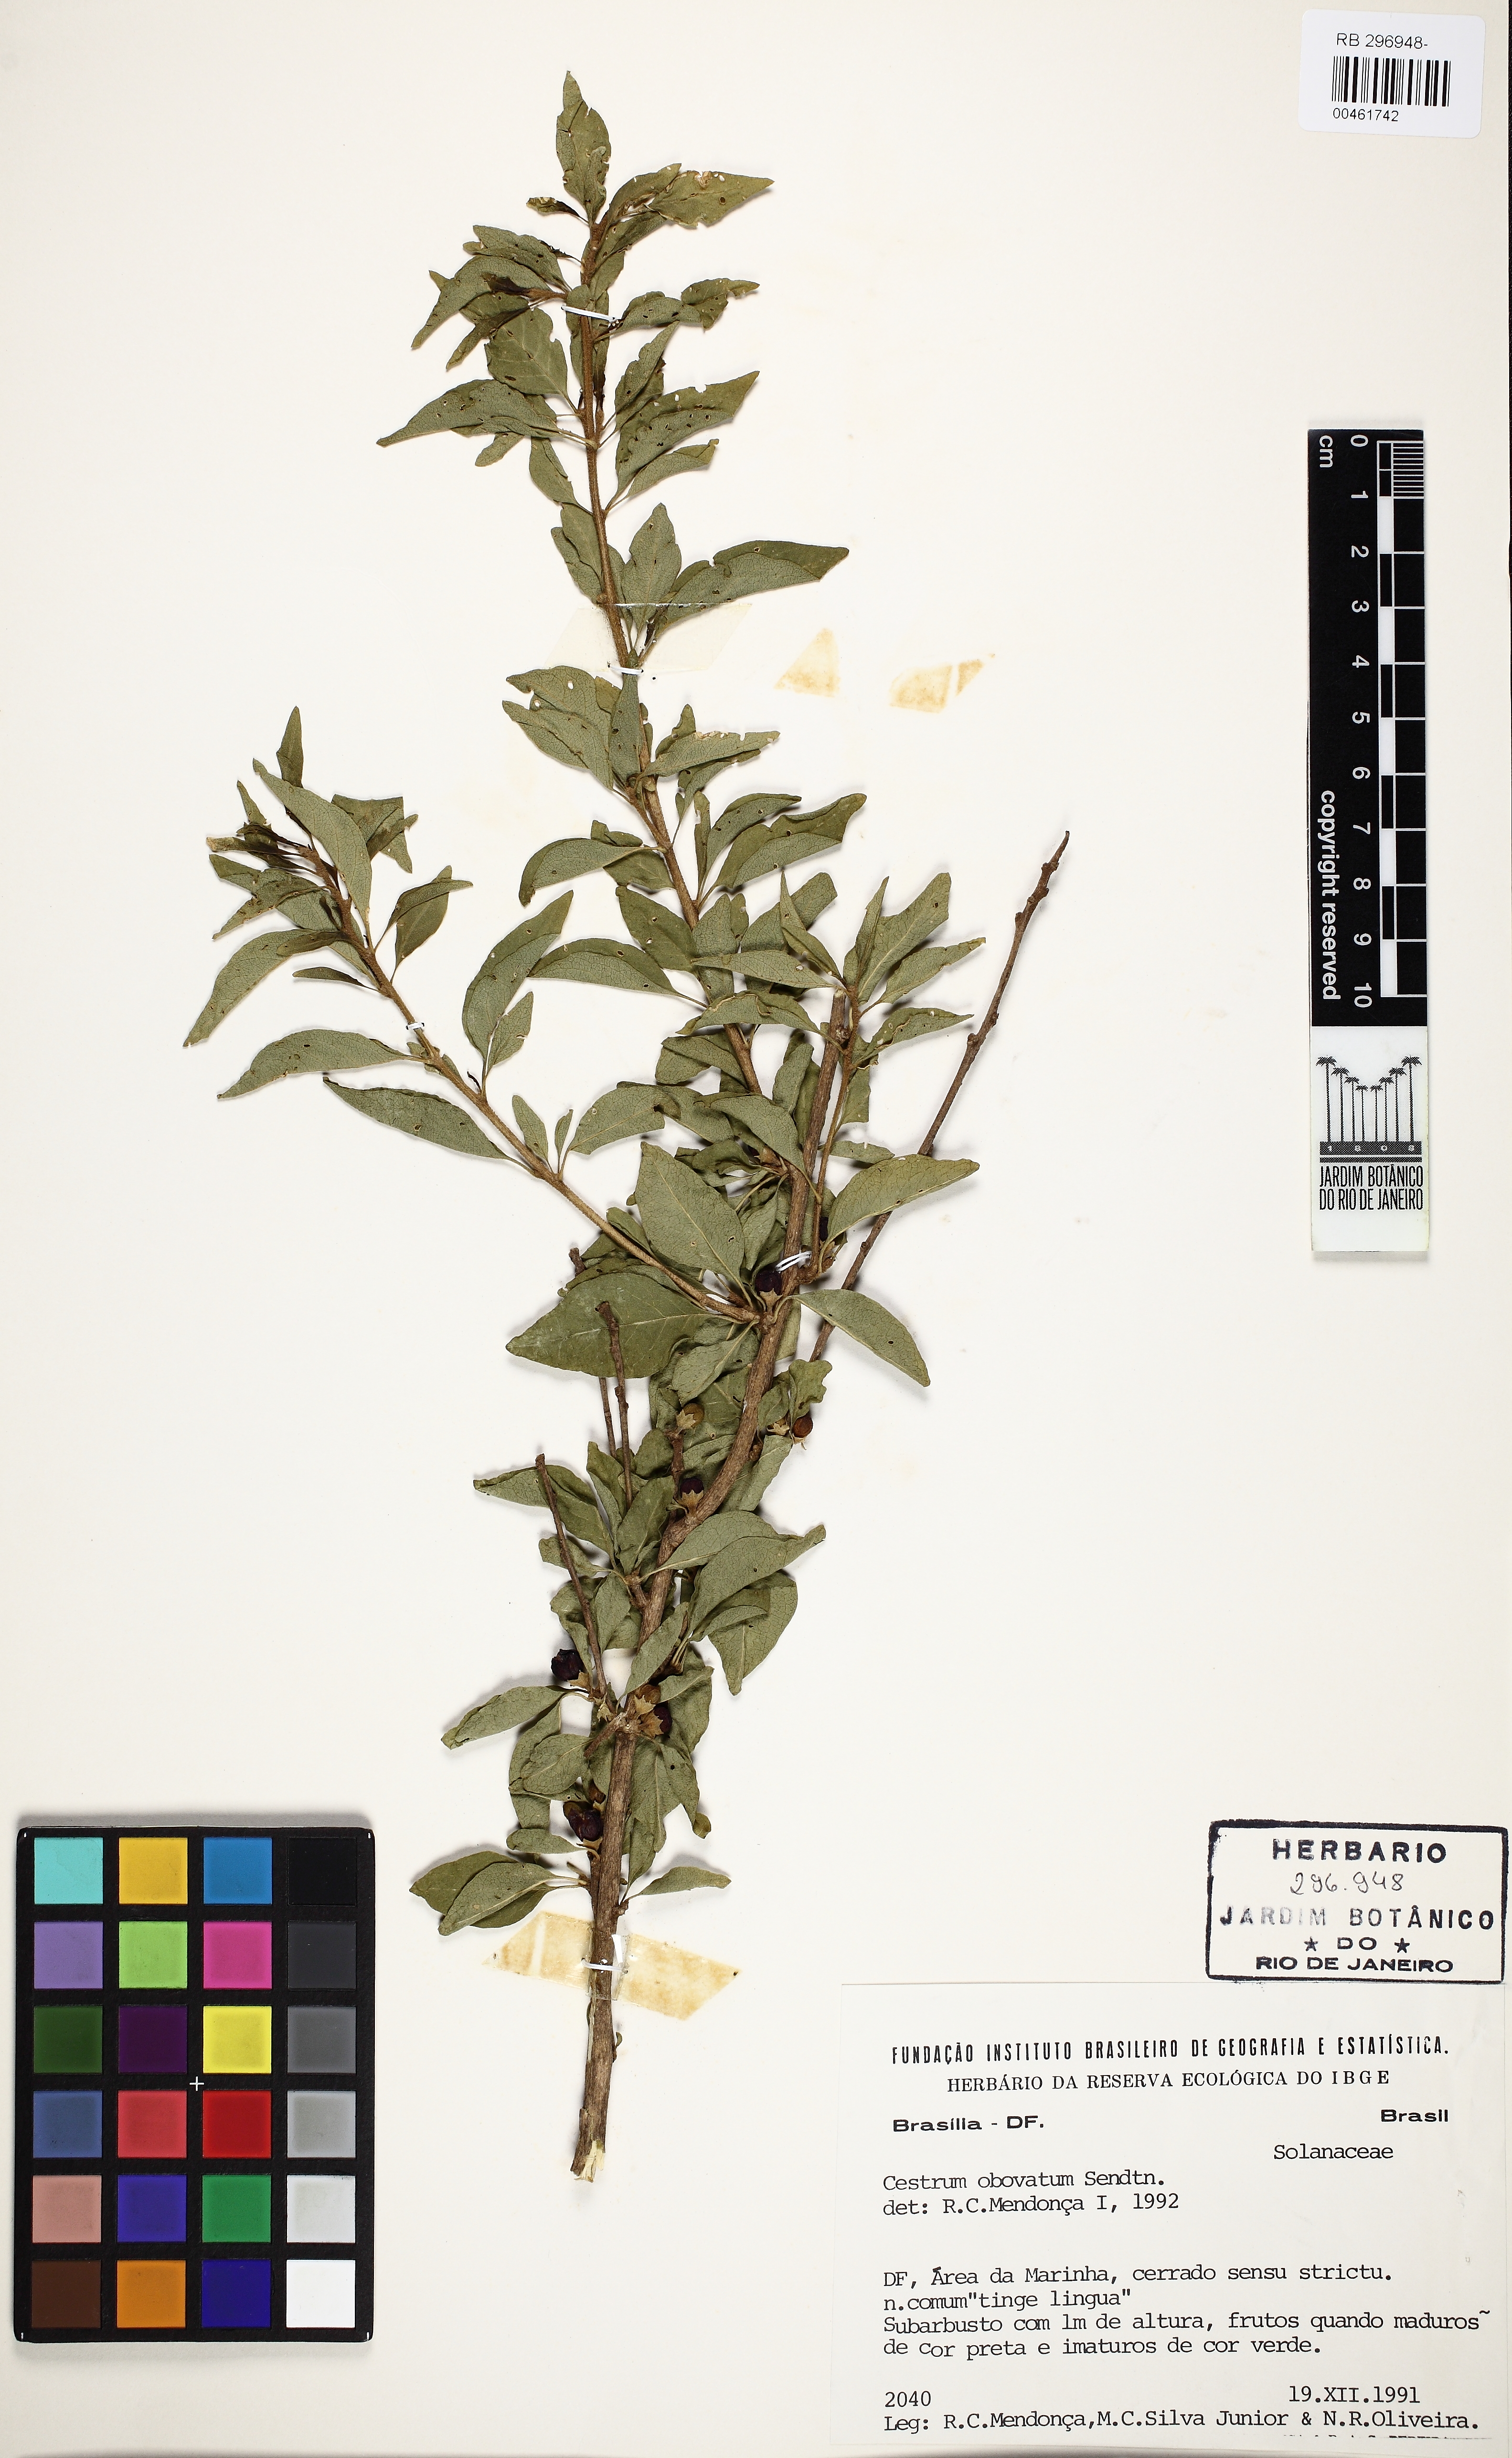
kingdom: Plantae
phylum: Tracheophyta
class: Magnoliopsida
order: Solanales
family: Solanaceae
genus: Cestrum
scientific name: Cestrum obovatum
